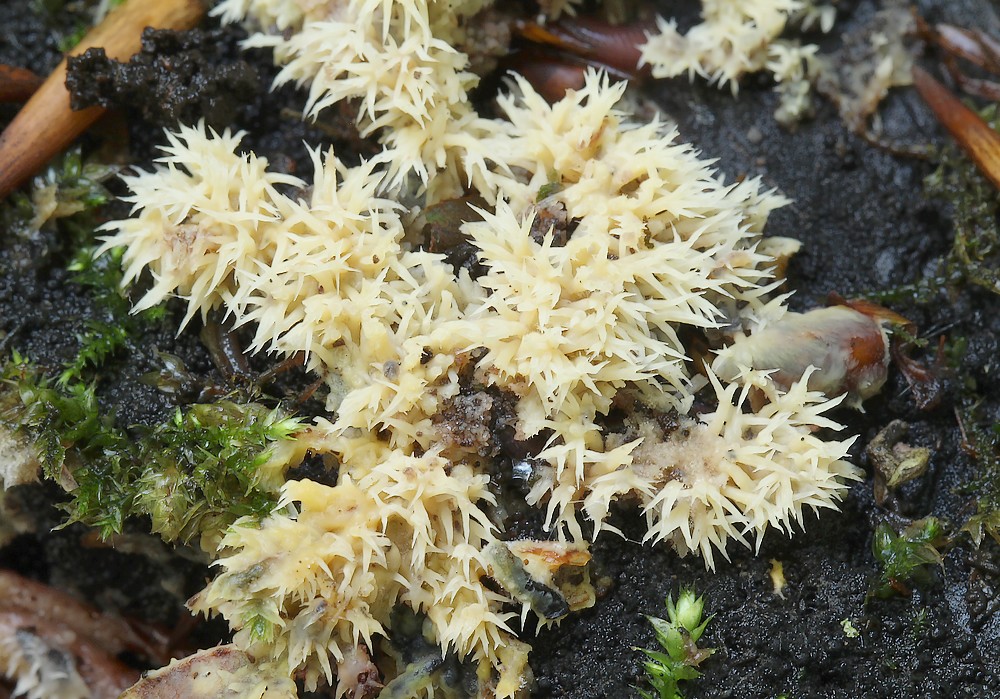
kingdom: Fungi
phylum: Basidiomycota
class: Agaricomycetes
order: Polyporales
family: Meruliaceae
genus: Mycoacia
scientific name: Mycoacia uda
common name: citrongul vokspig
